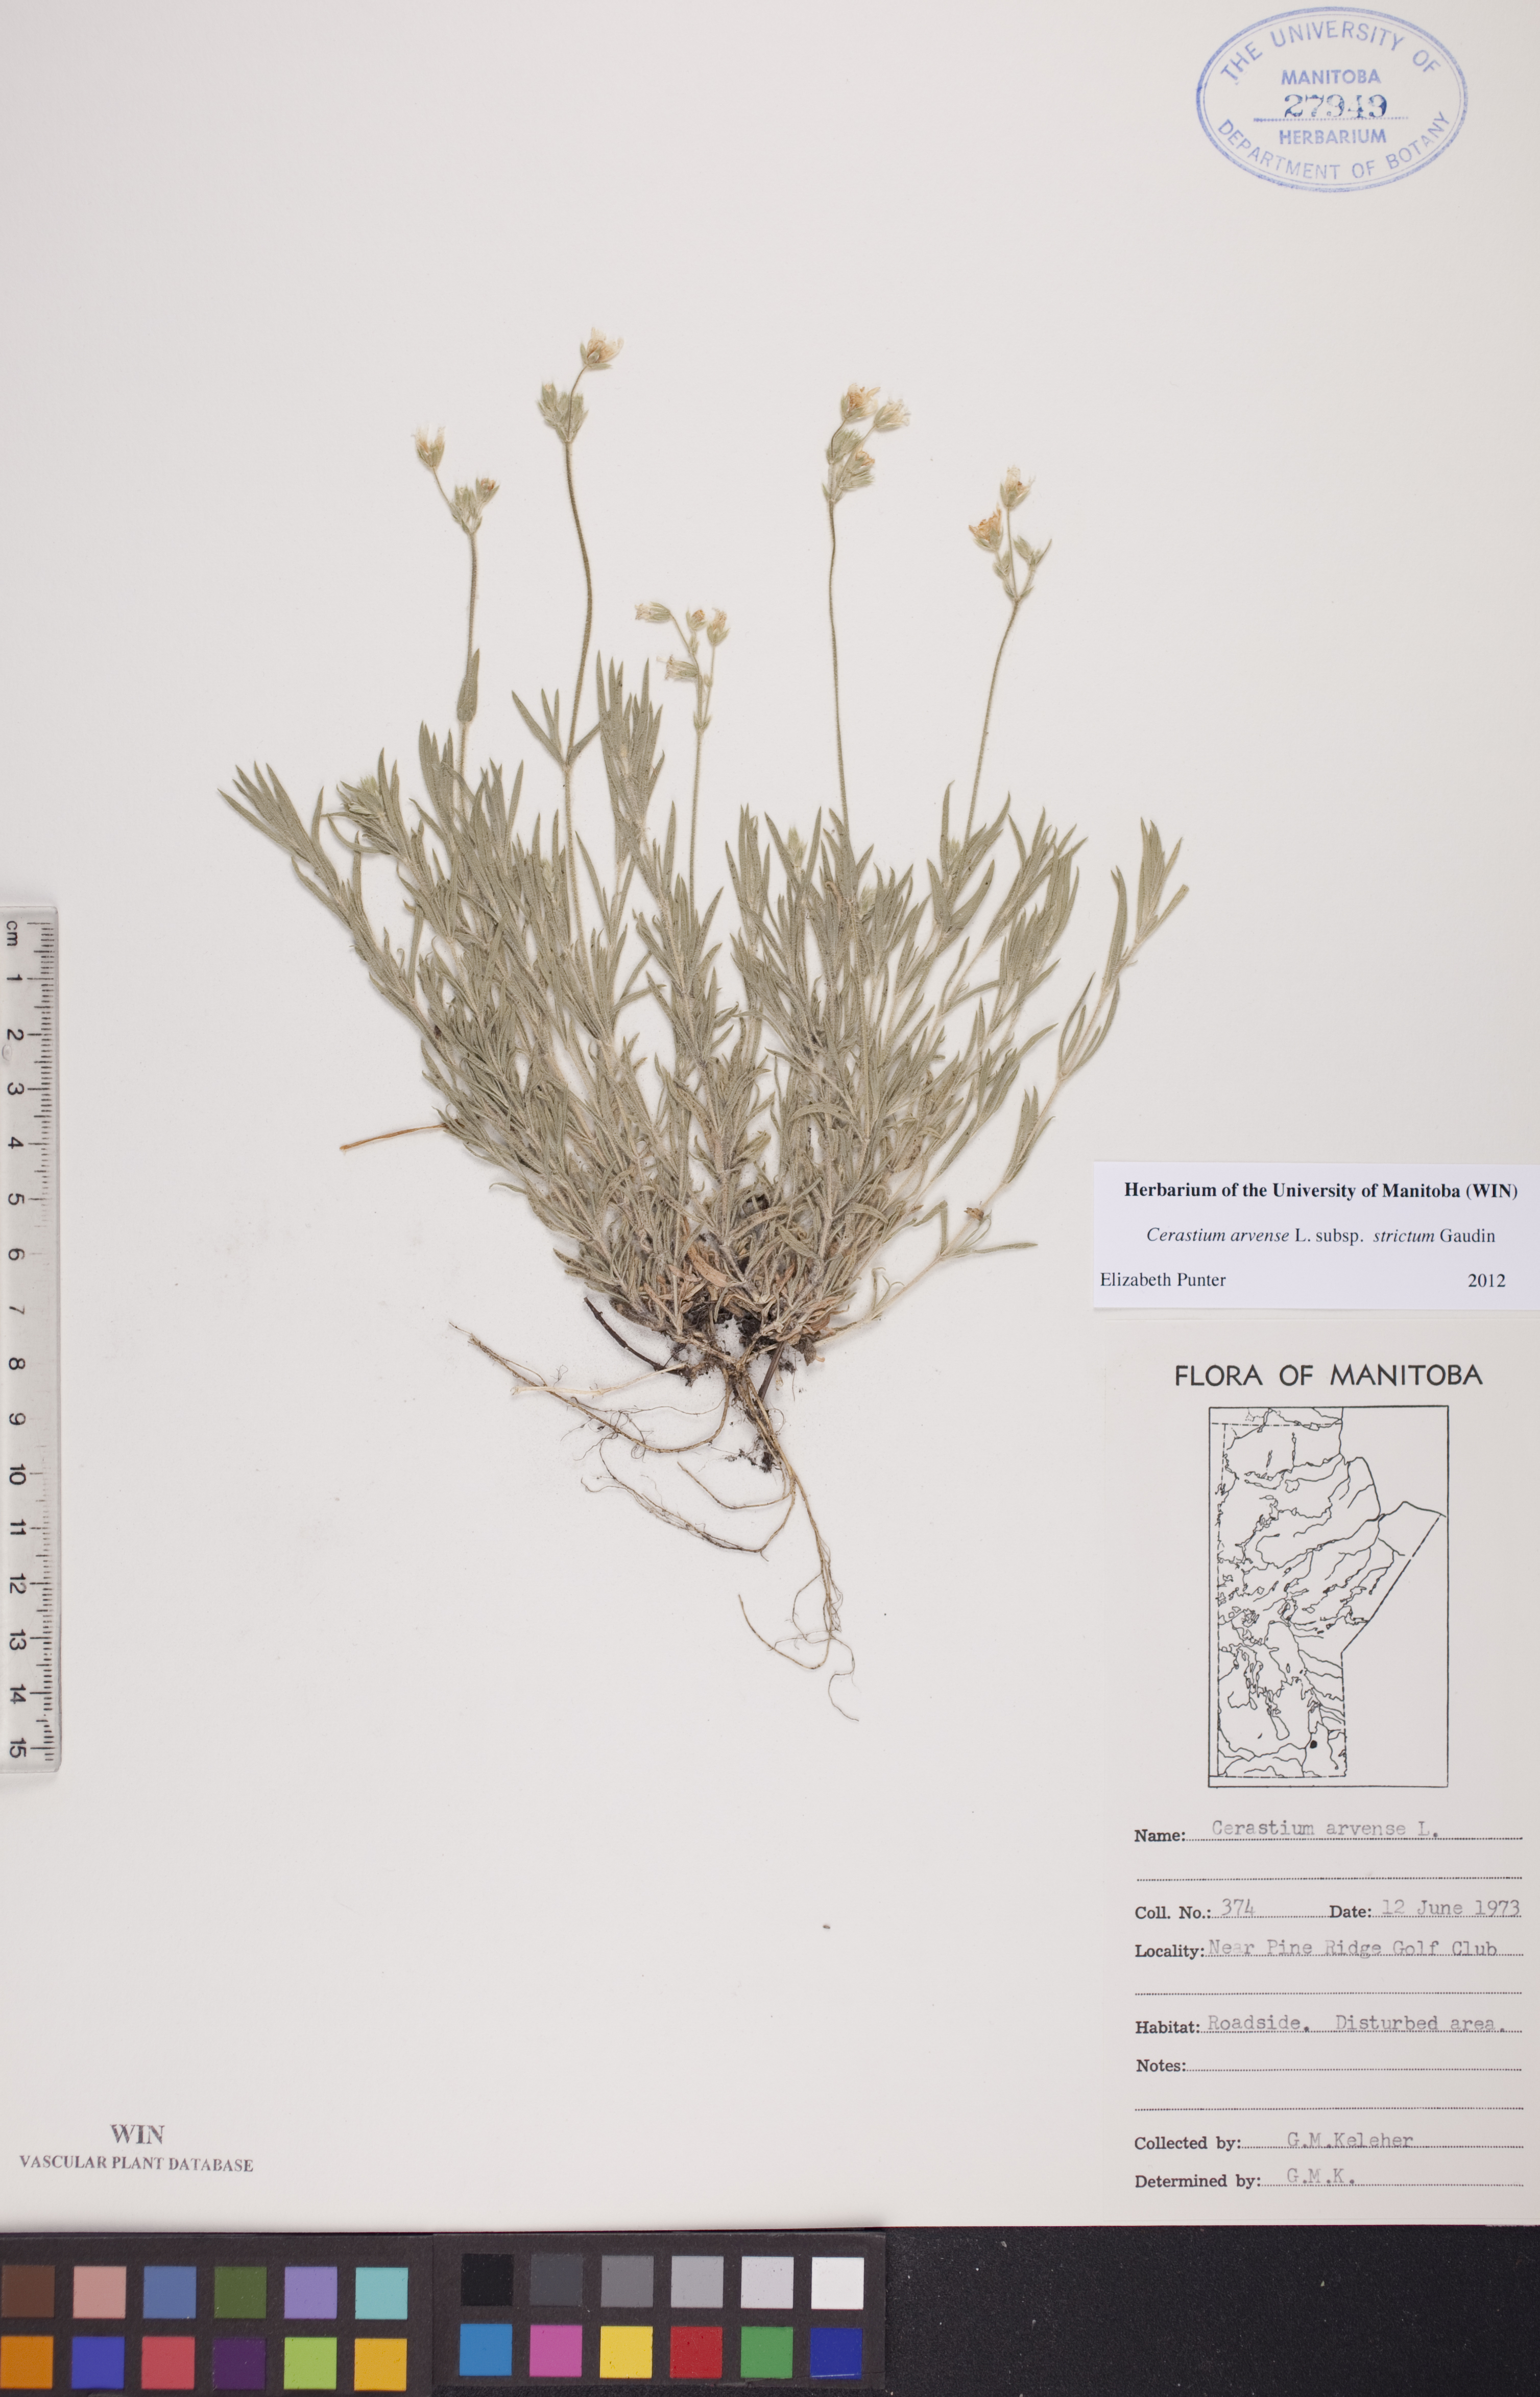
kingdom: Plantae
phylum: Tracheophyta
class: Magnoliopsida
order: Caryophyllales
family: Caryophyllaceae
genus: Cerastium
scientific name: Cerastium elongatum
